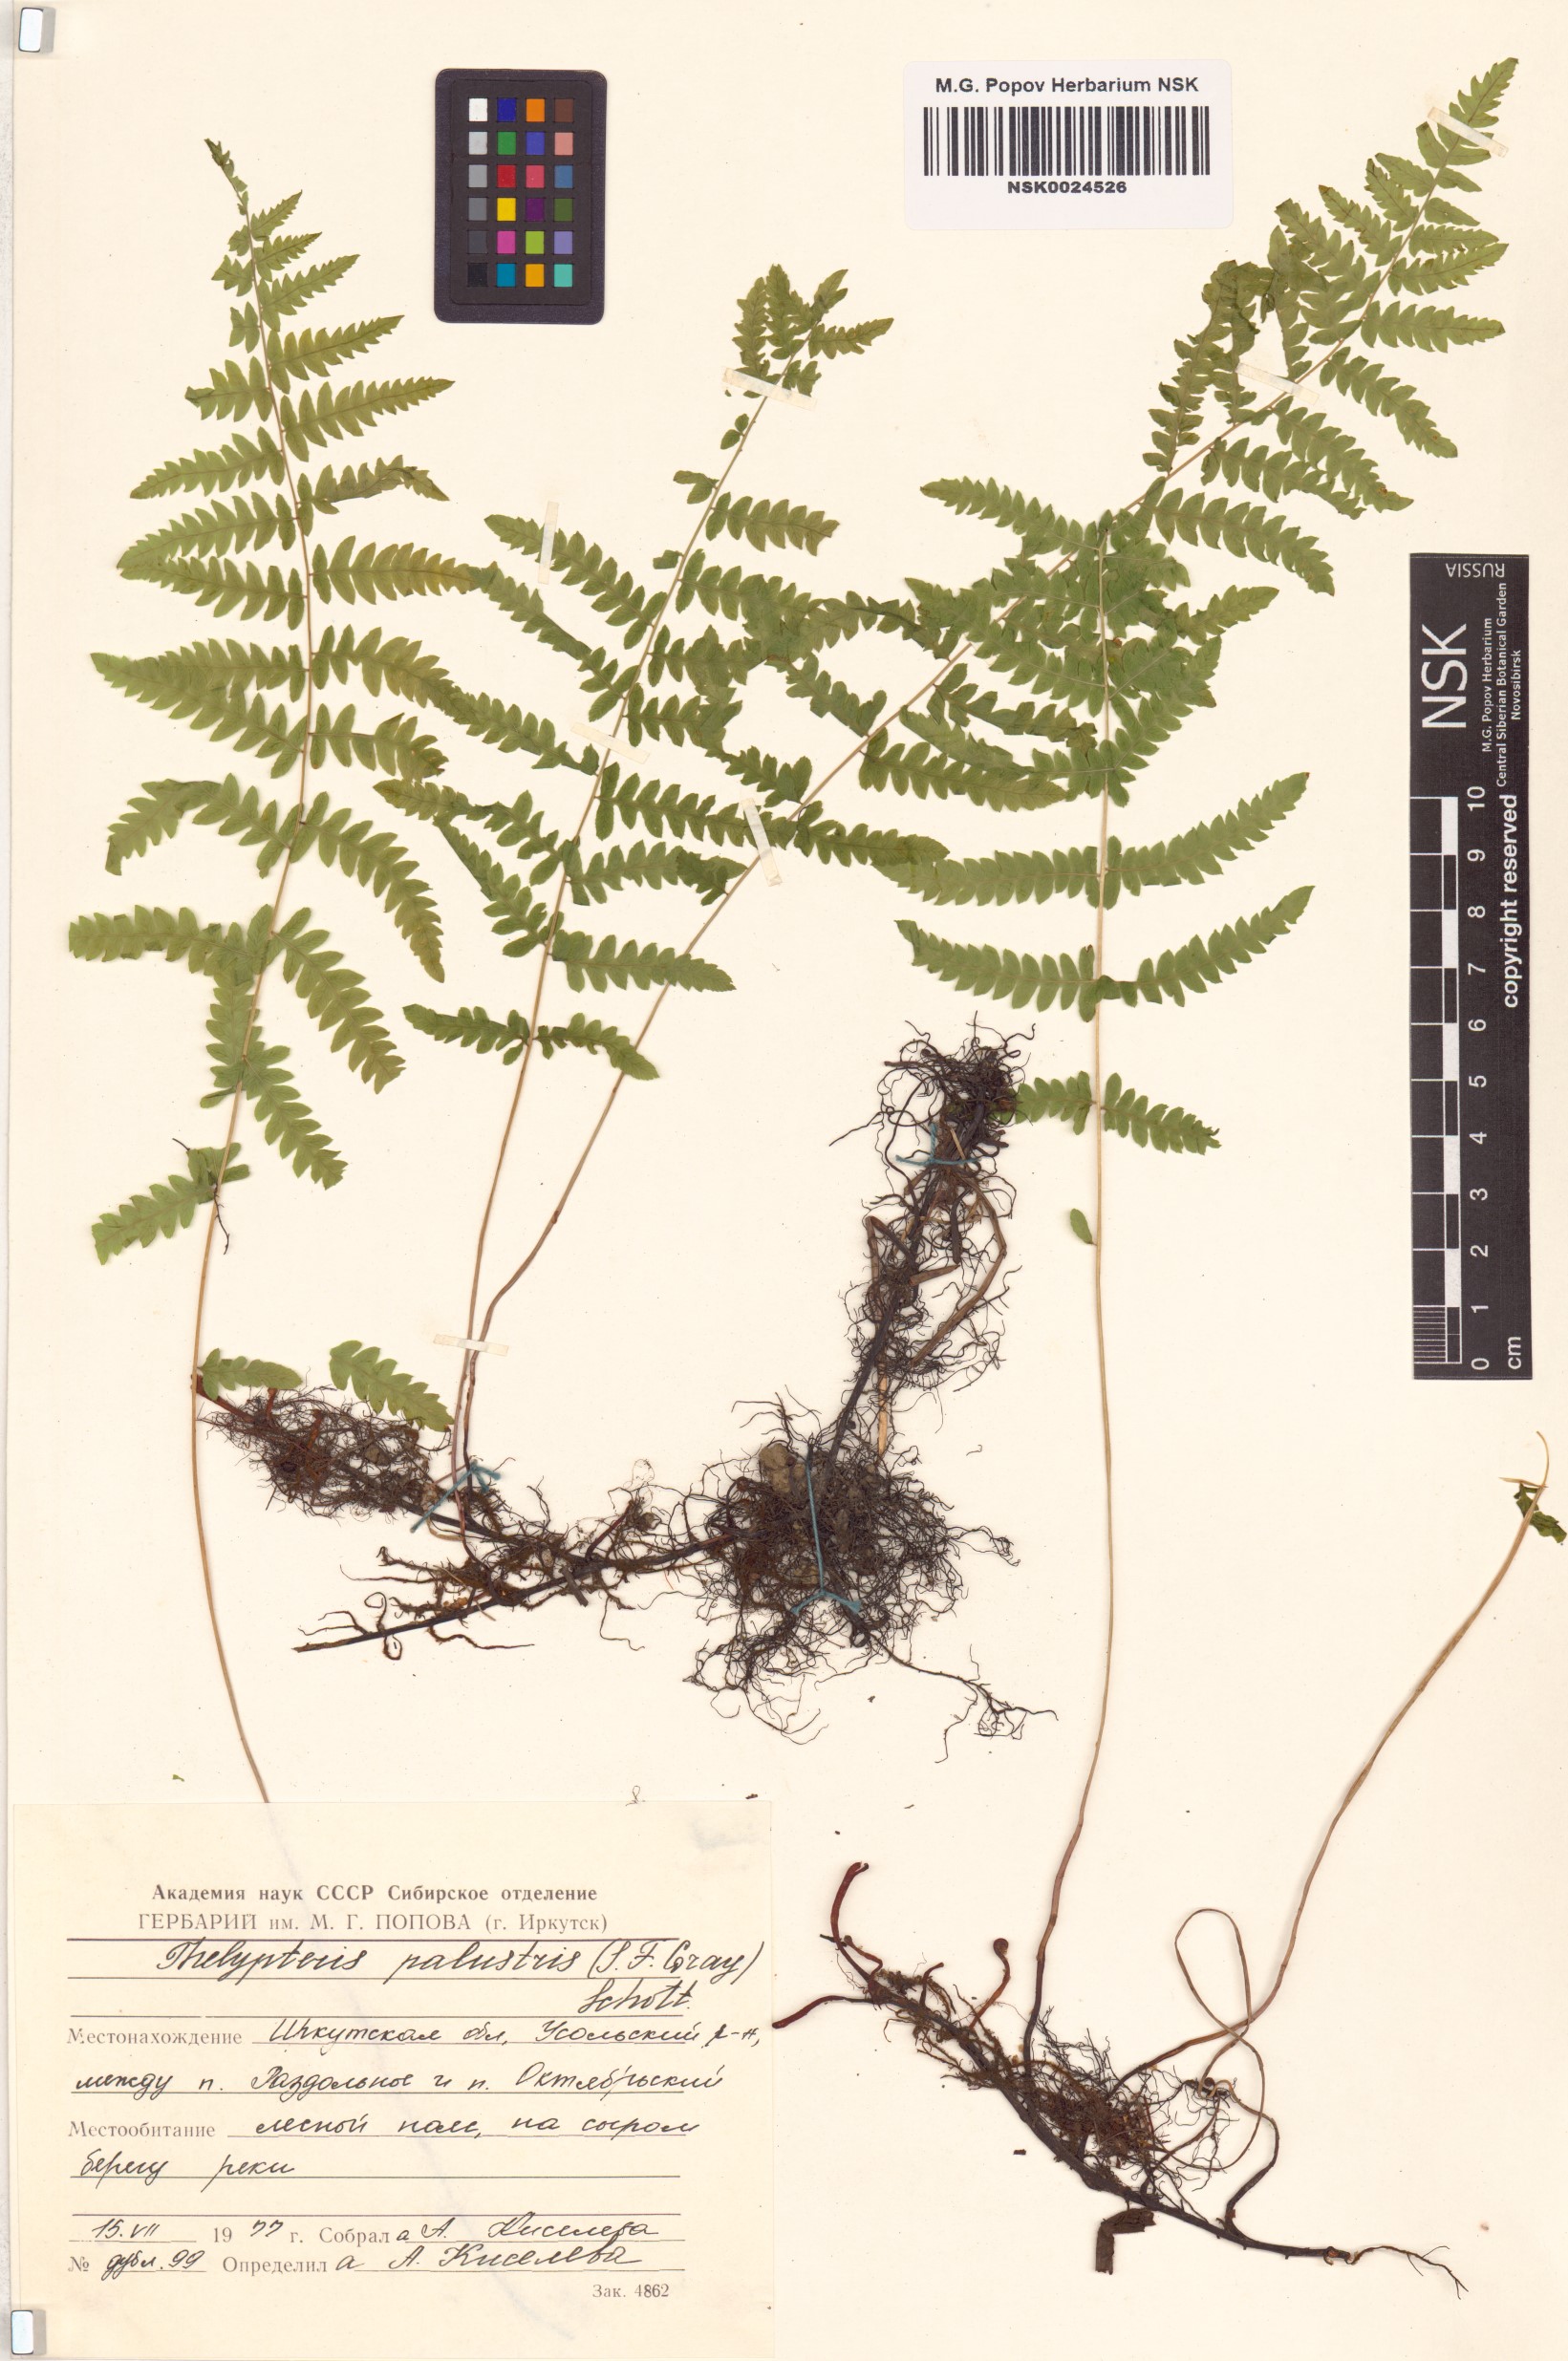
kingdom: Plantae
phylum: Tracheophyta
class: Polypodiopsida
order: Polypodiales
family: Thelypteridaceae
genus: Thelypteris
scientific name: Thelypteris palustris
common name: Marsh fern
